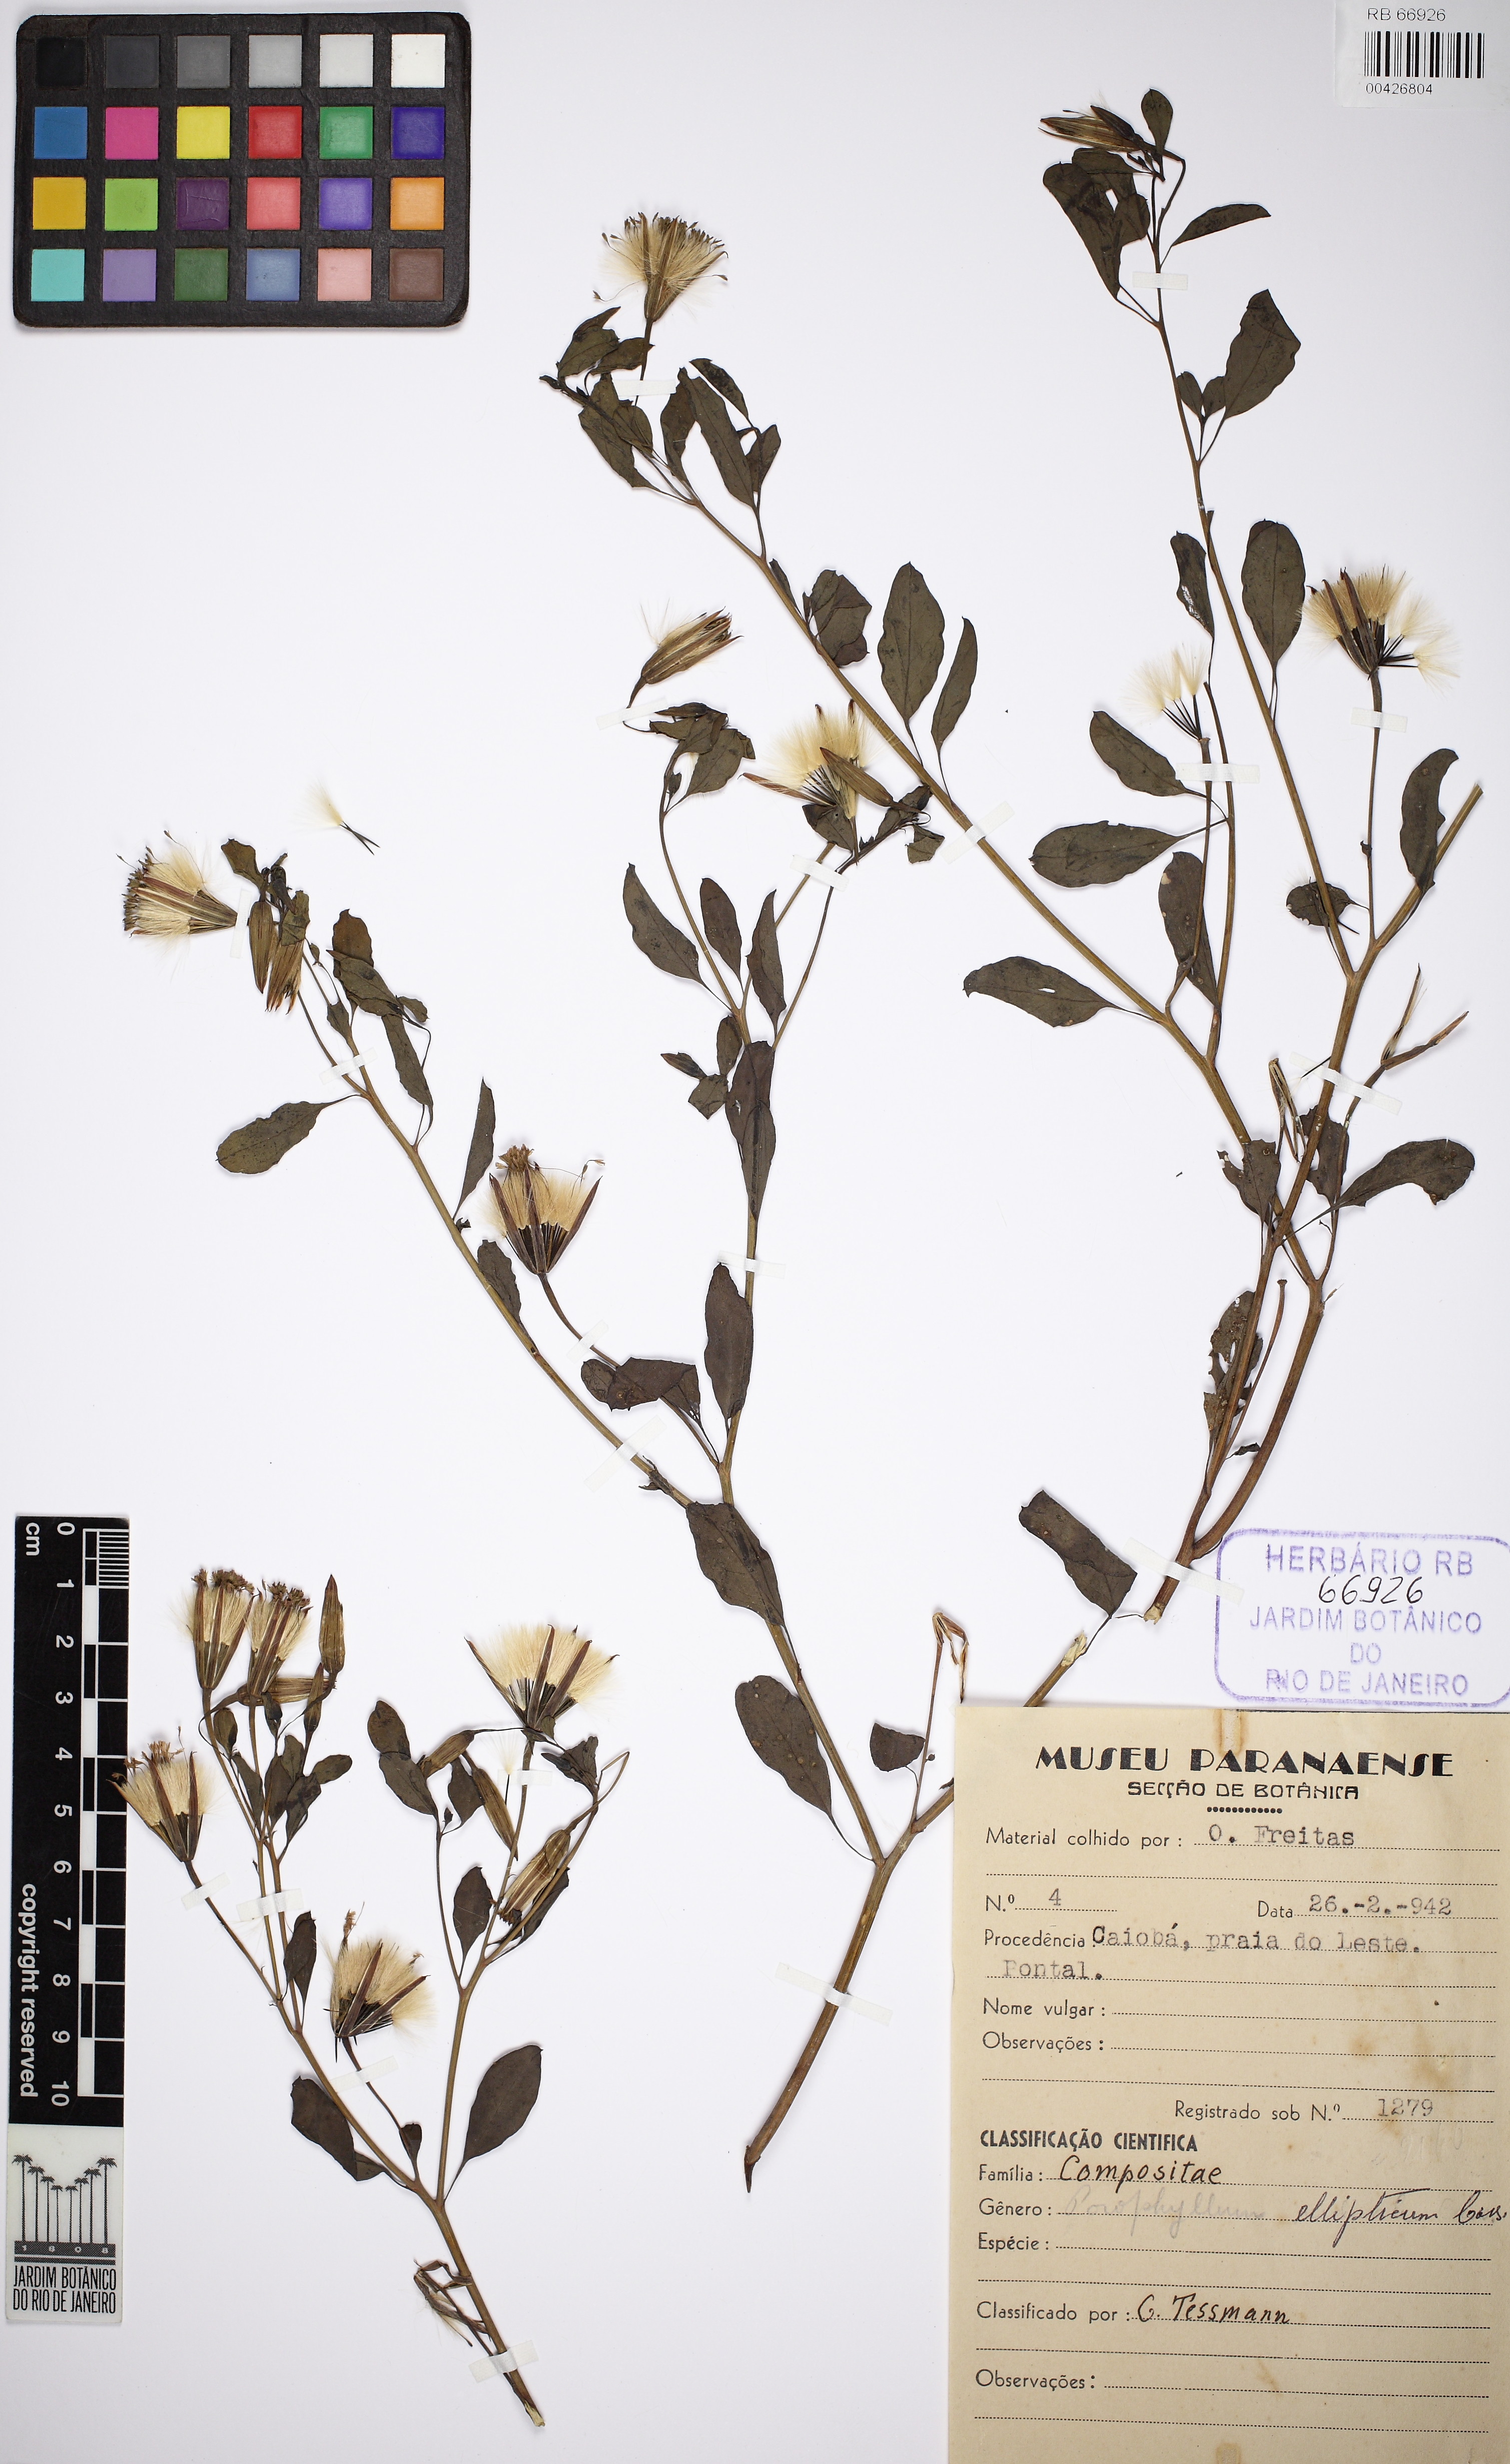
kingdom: Plantae
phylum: Tracheophyta
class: Magnoliopsida
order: Asterales
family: Asteraceae
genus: Porophyllum
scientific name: Porophyllum ruderale
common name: Yerba porosa
